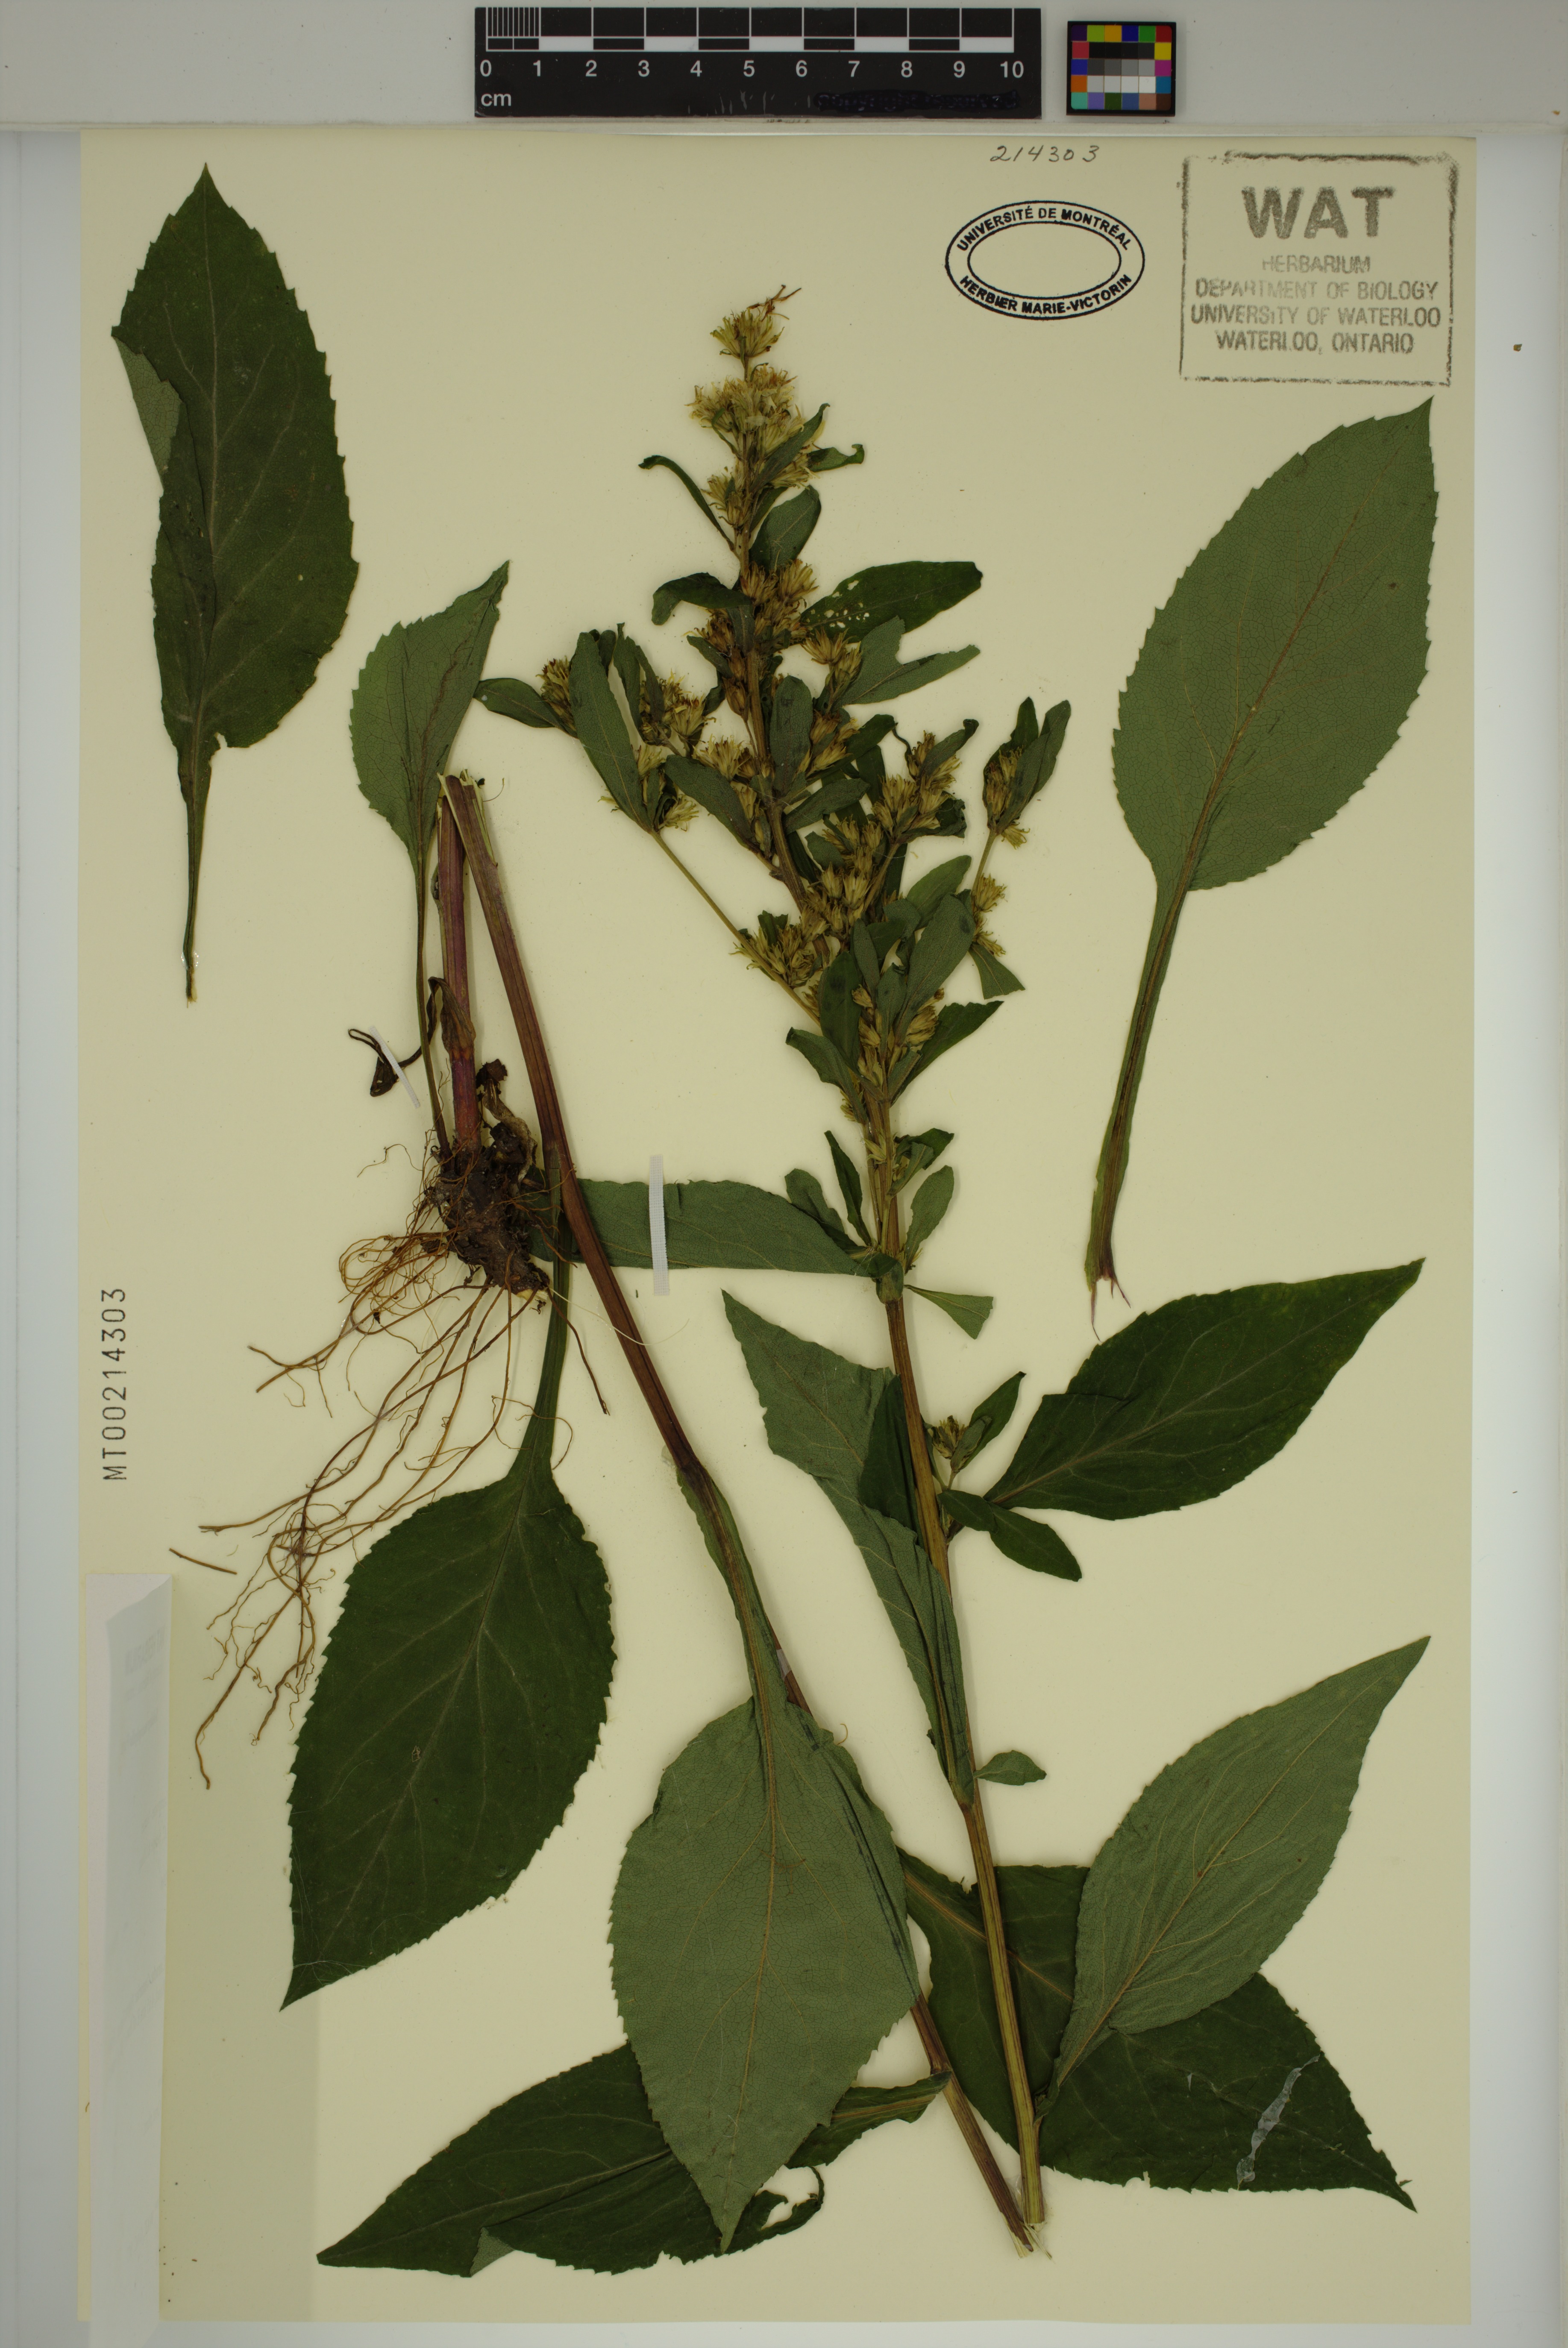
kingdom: Plantae
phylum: Tracheophyta
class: Magnoliopsida
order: Asterales
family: Asteraceae
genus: Solidago
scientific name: Solidago macrophylla
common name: Large-leaved goldenrod
